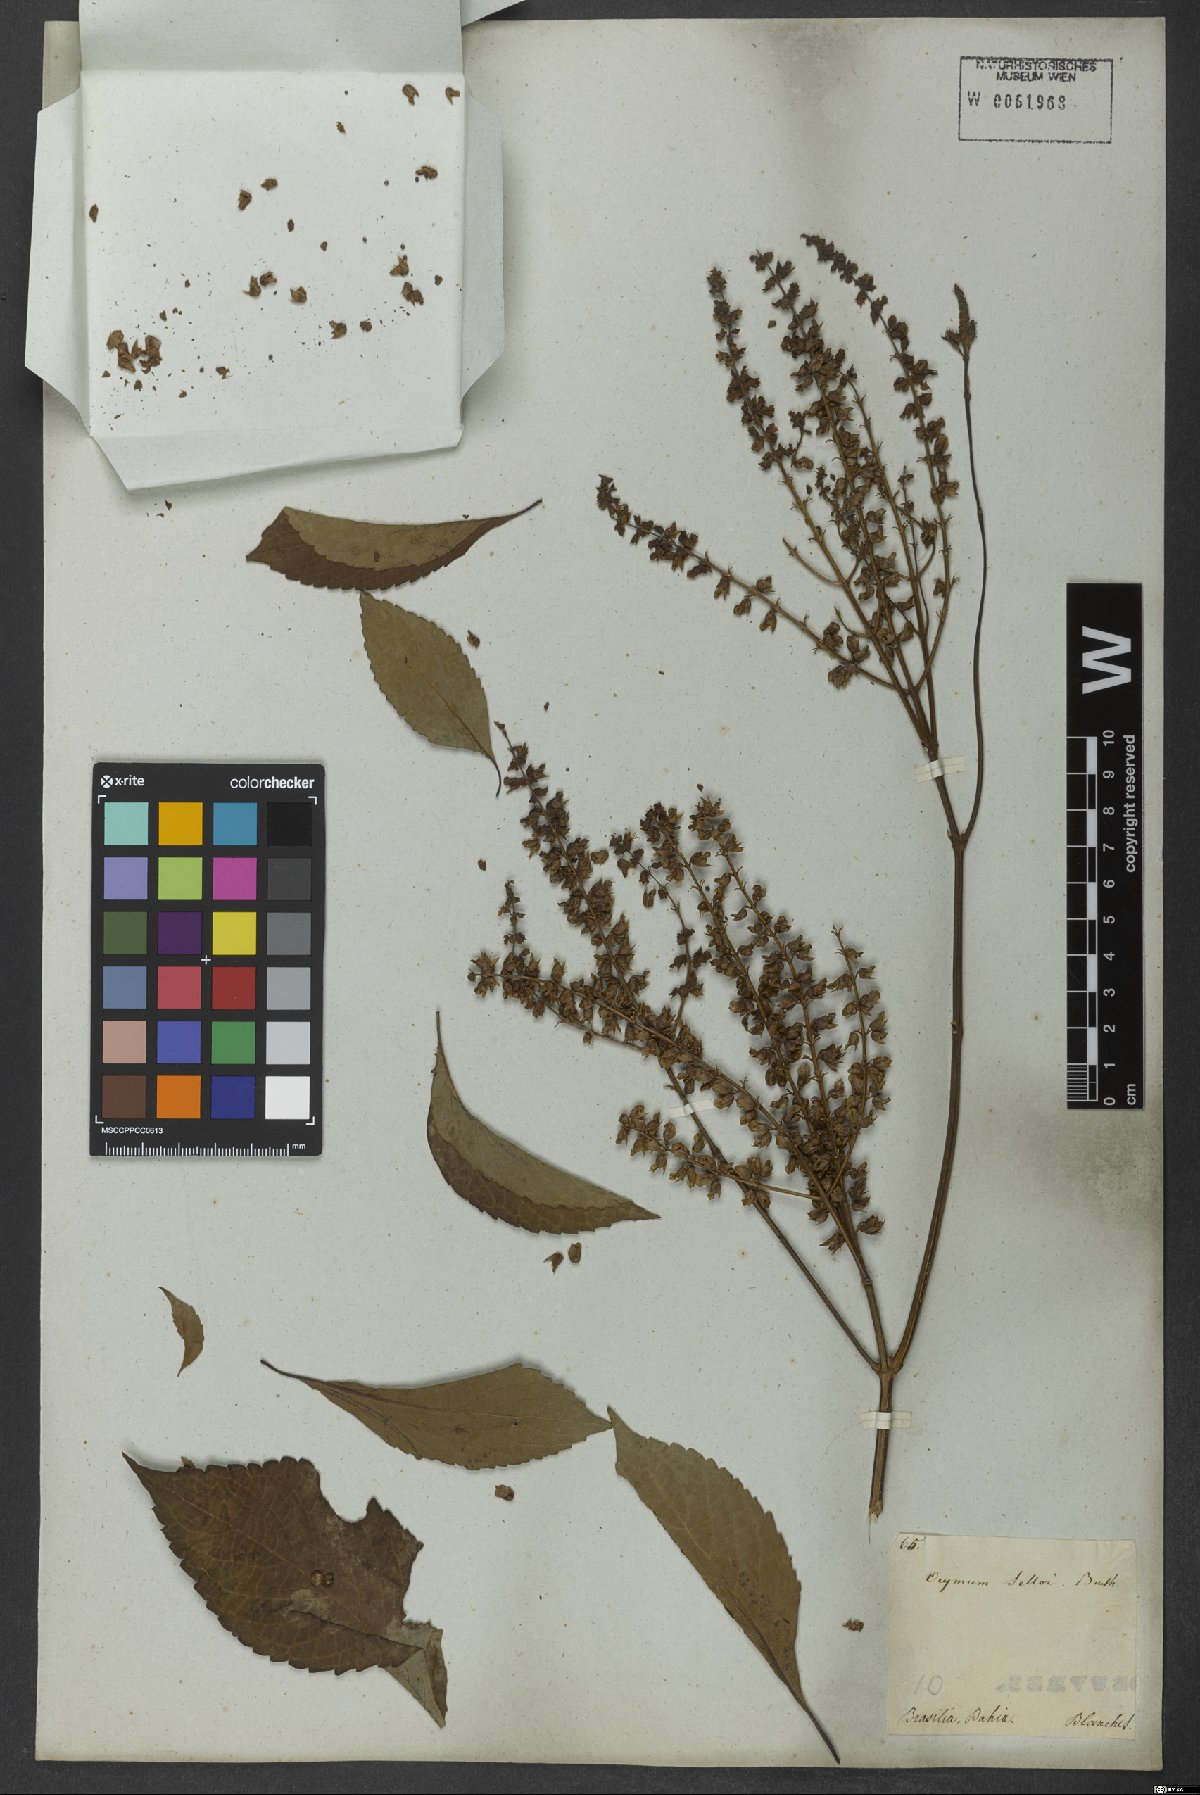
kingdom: Plantae
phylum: Tracheophyta
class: Magnoliopsida
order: Lamiales
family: Lamiaceae
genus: Ocimum
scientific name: Ocimum carnosum
